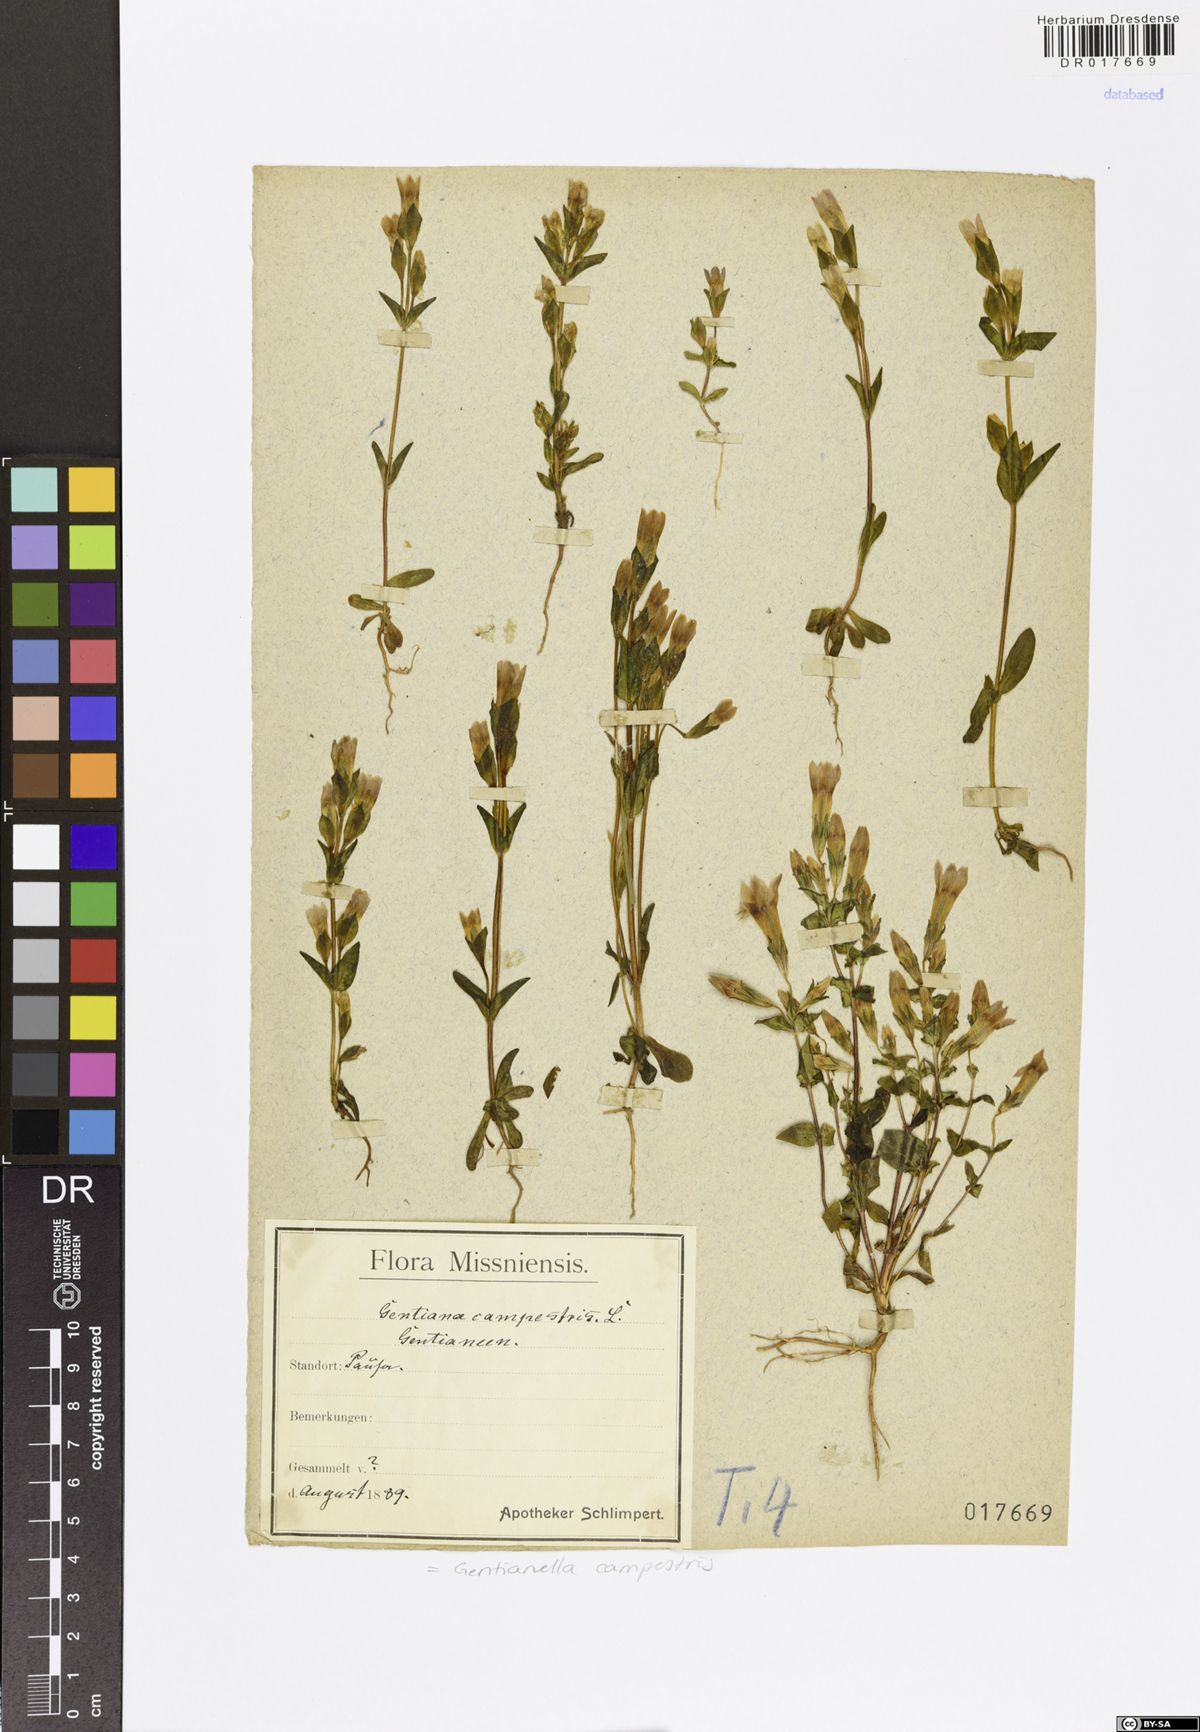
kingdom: Plantae
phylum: Tracheophyta
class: Magnoliopsida
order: Gentianales
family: Gentianaceae
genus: Gentianella
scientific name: Gentianella campestris
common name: Field gentian
